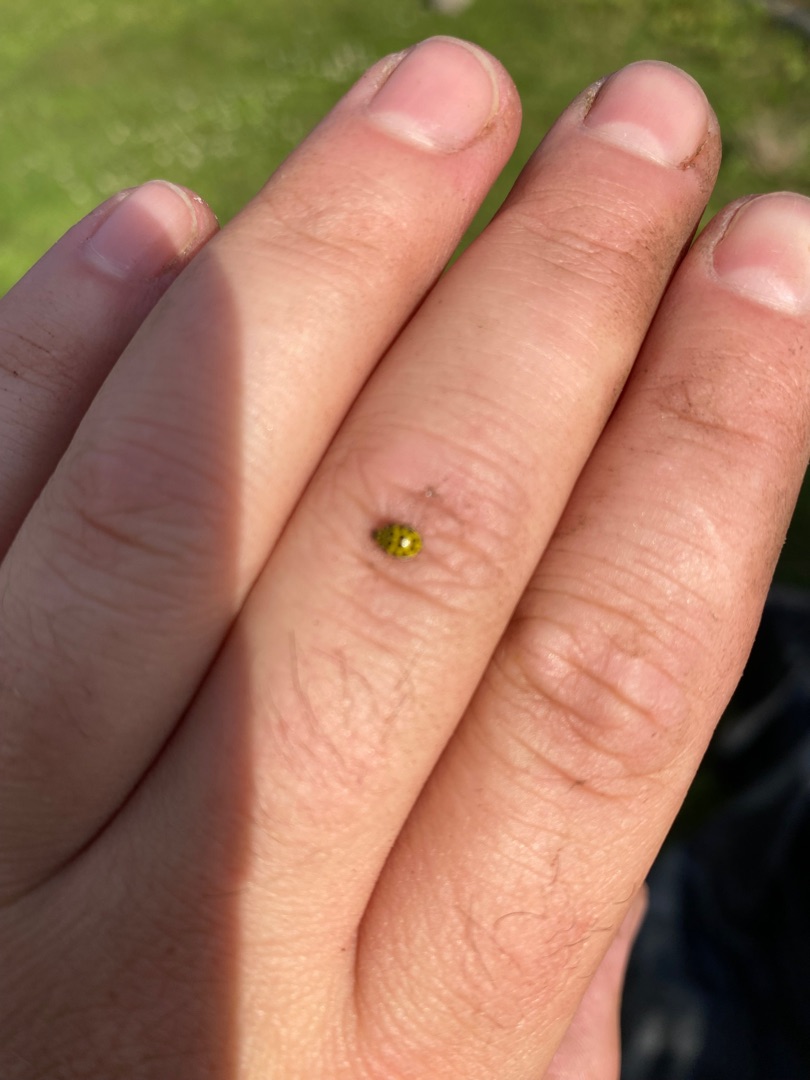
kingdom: Animalia
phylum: Arthropoda
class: Insecta
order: Coleoptera
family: Coccinellidae
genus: Psyllobora
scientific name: Psyllobora vigintiduopunctata
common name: Toogtyveplettet mariehøne
